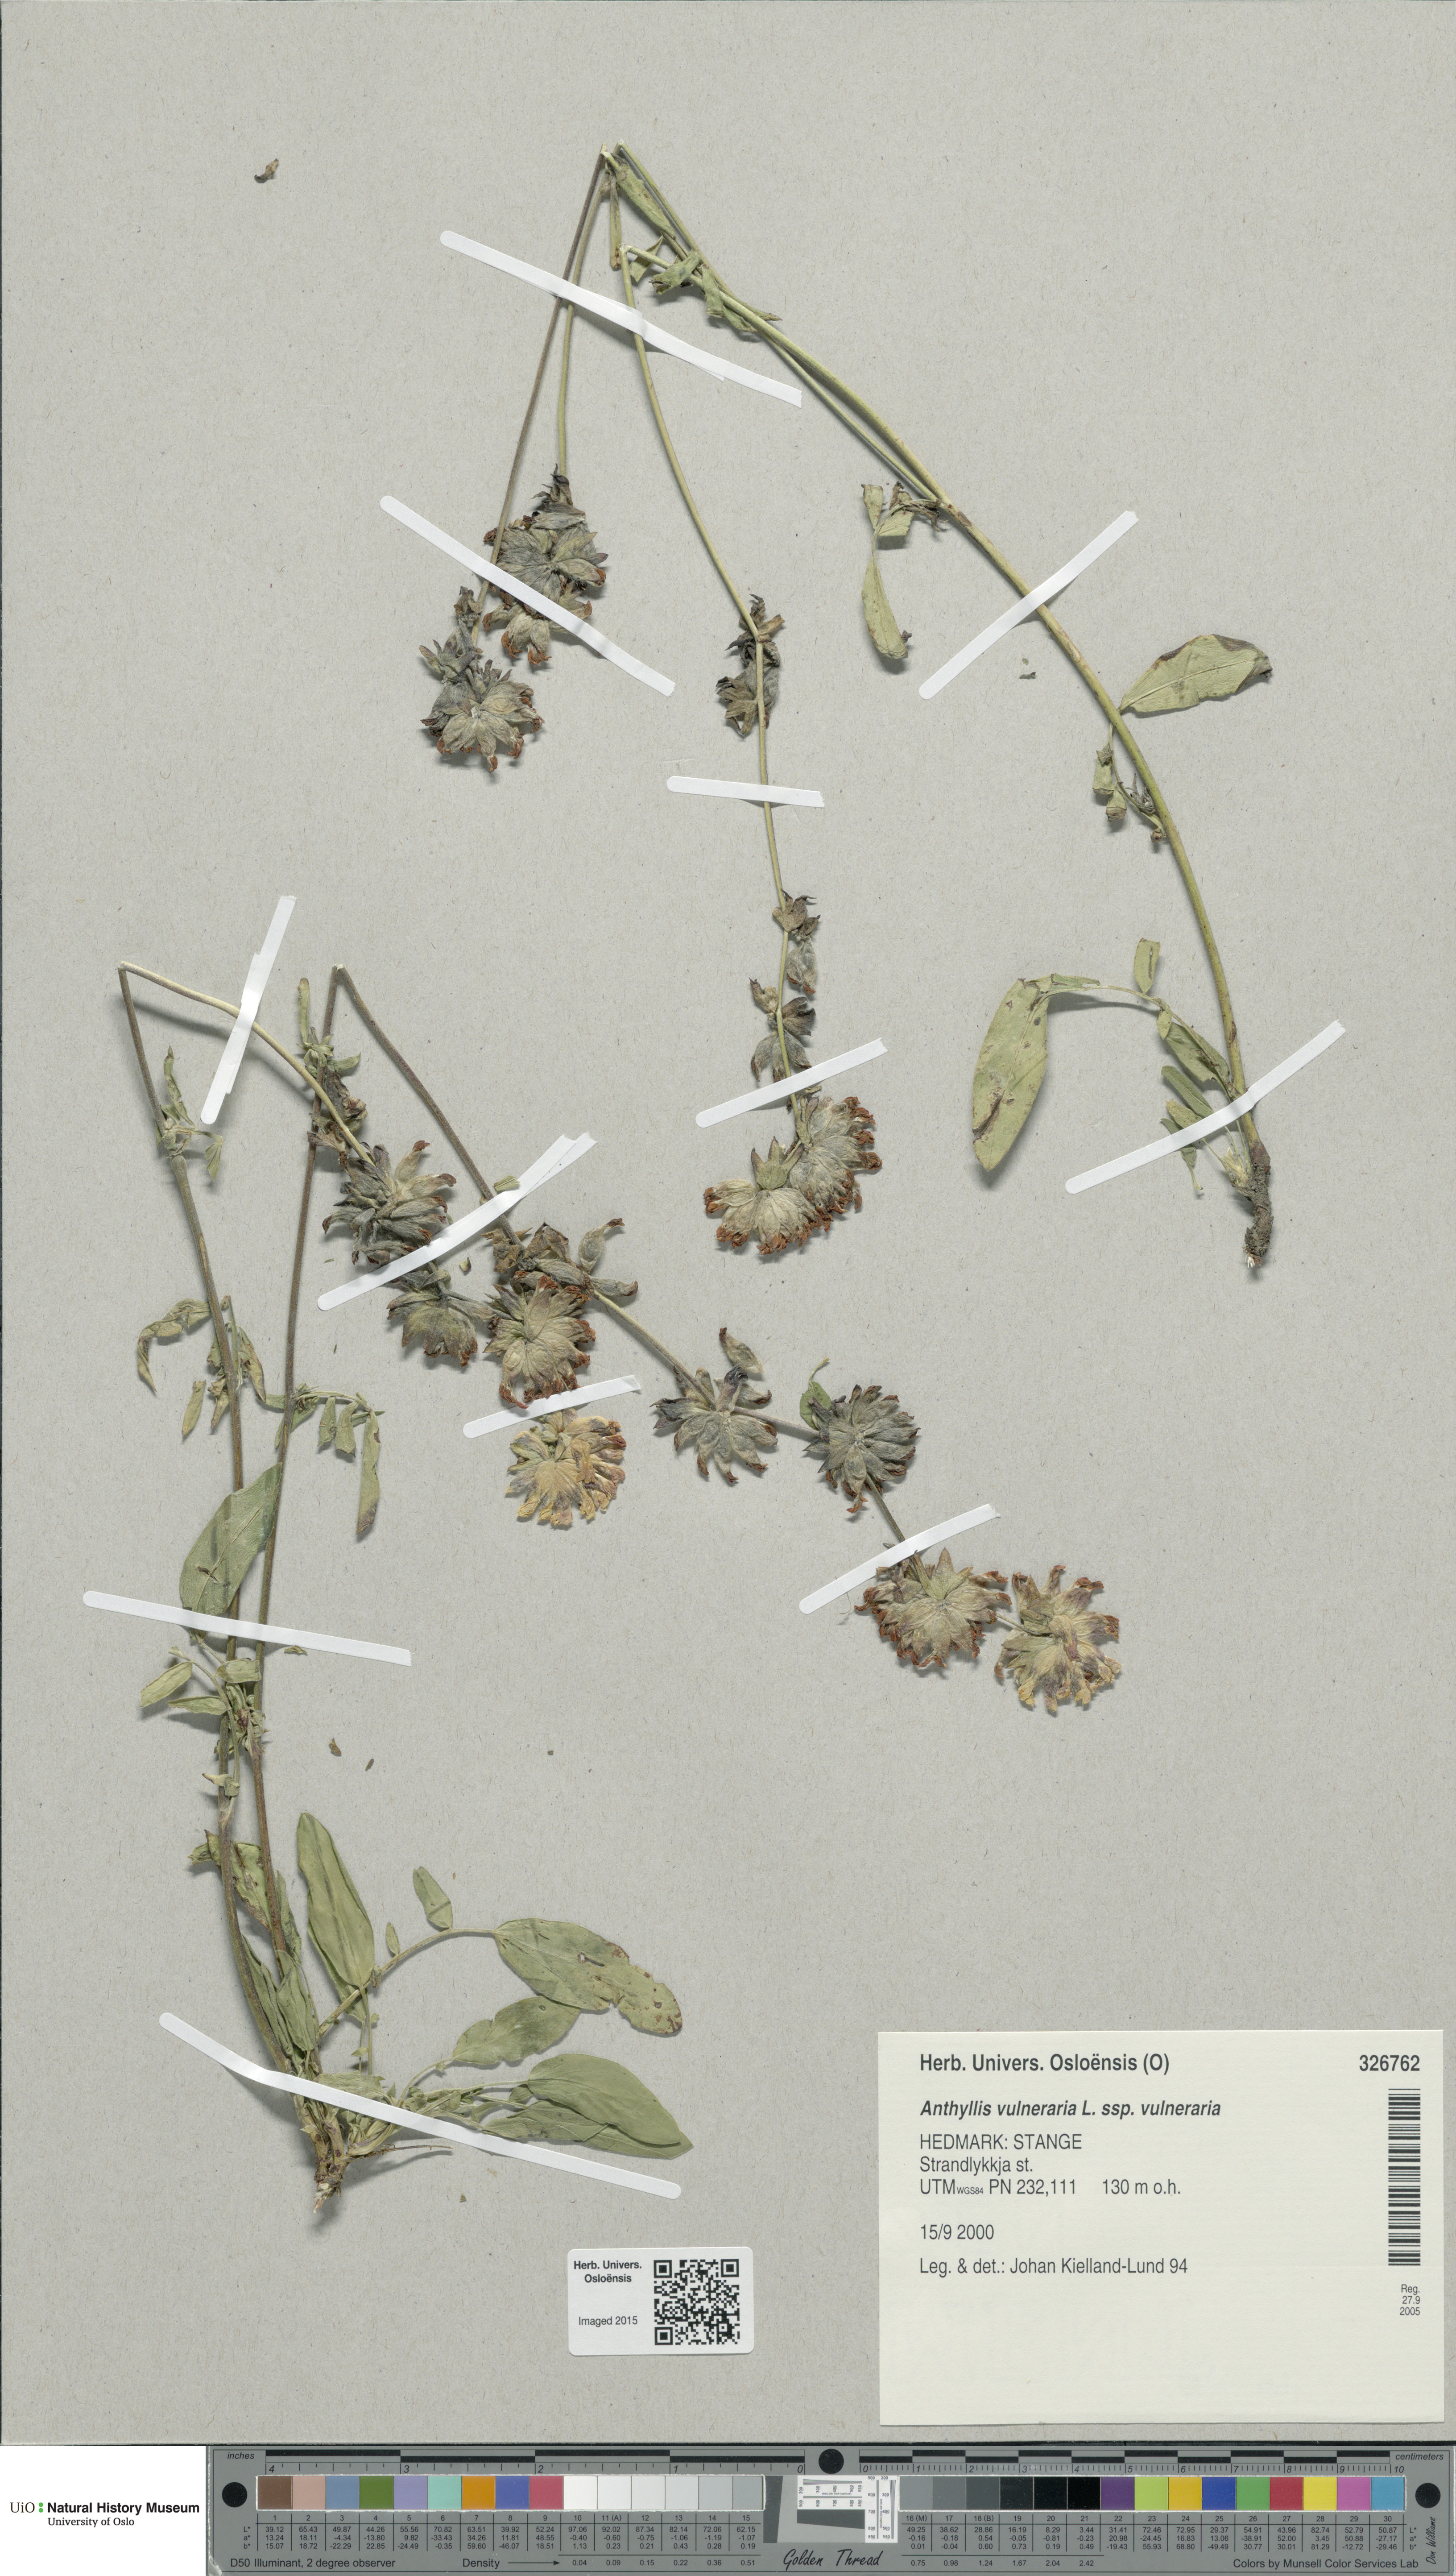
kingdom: Plantae
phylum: Tracheophyta
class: Magnoliopsida
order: Fabales
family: Fabaceae
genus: Anthyllis
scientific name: Anthyllis vulneraria
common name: Kidney vetch
